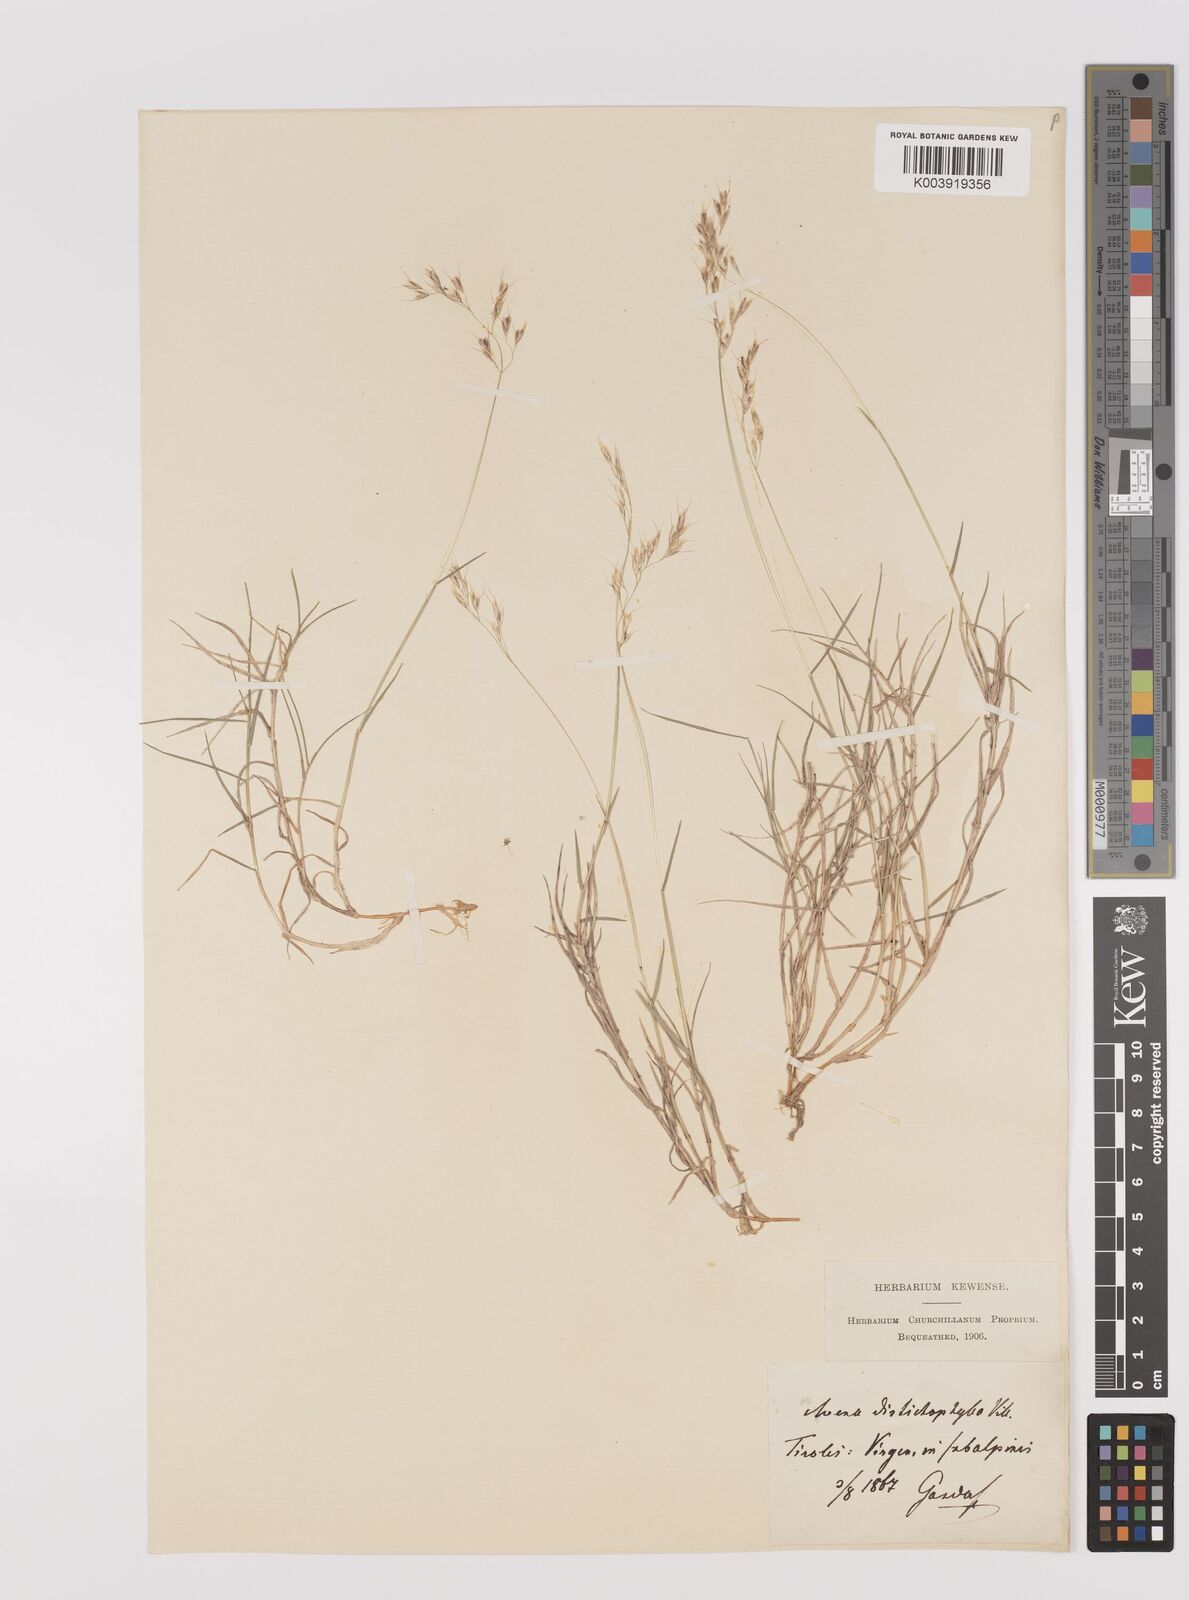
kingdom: Plantae
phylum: Tracheophyta
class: Liliopsida
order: Poales
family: Poaceae
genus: Acrospelion
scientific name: Acrospelion distichophyllum
